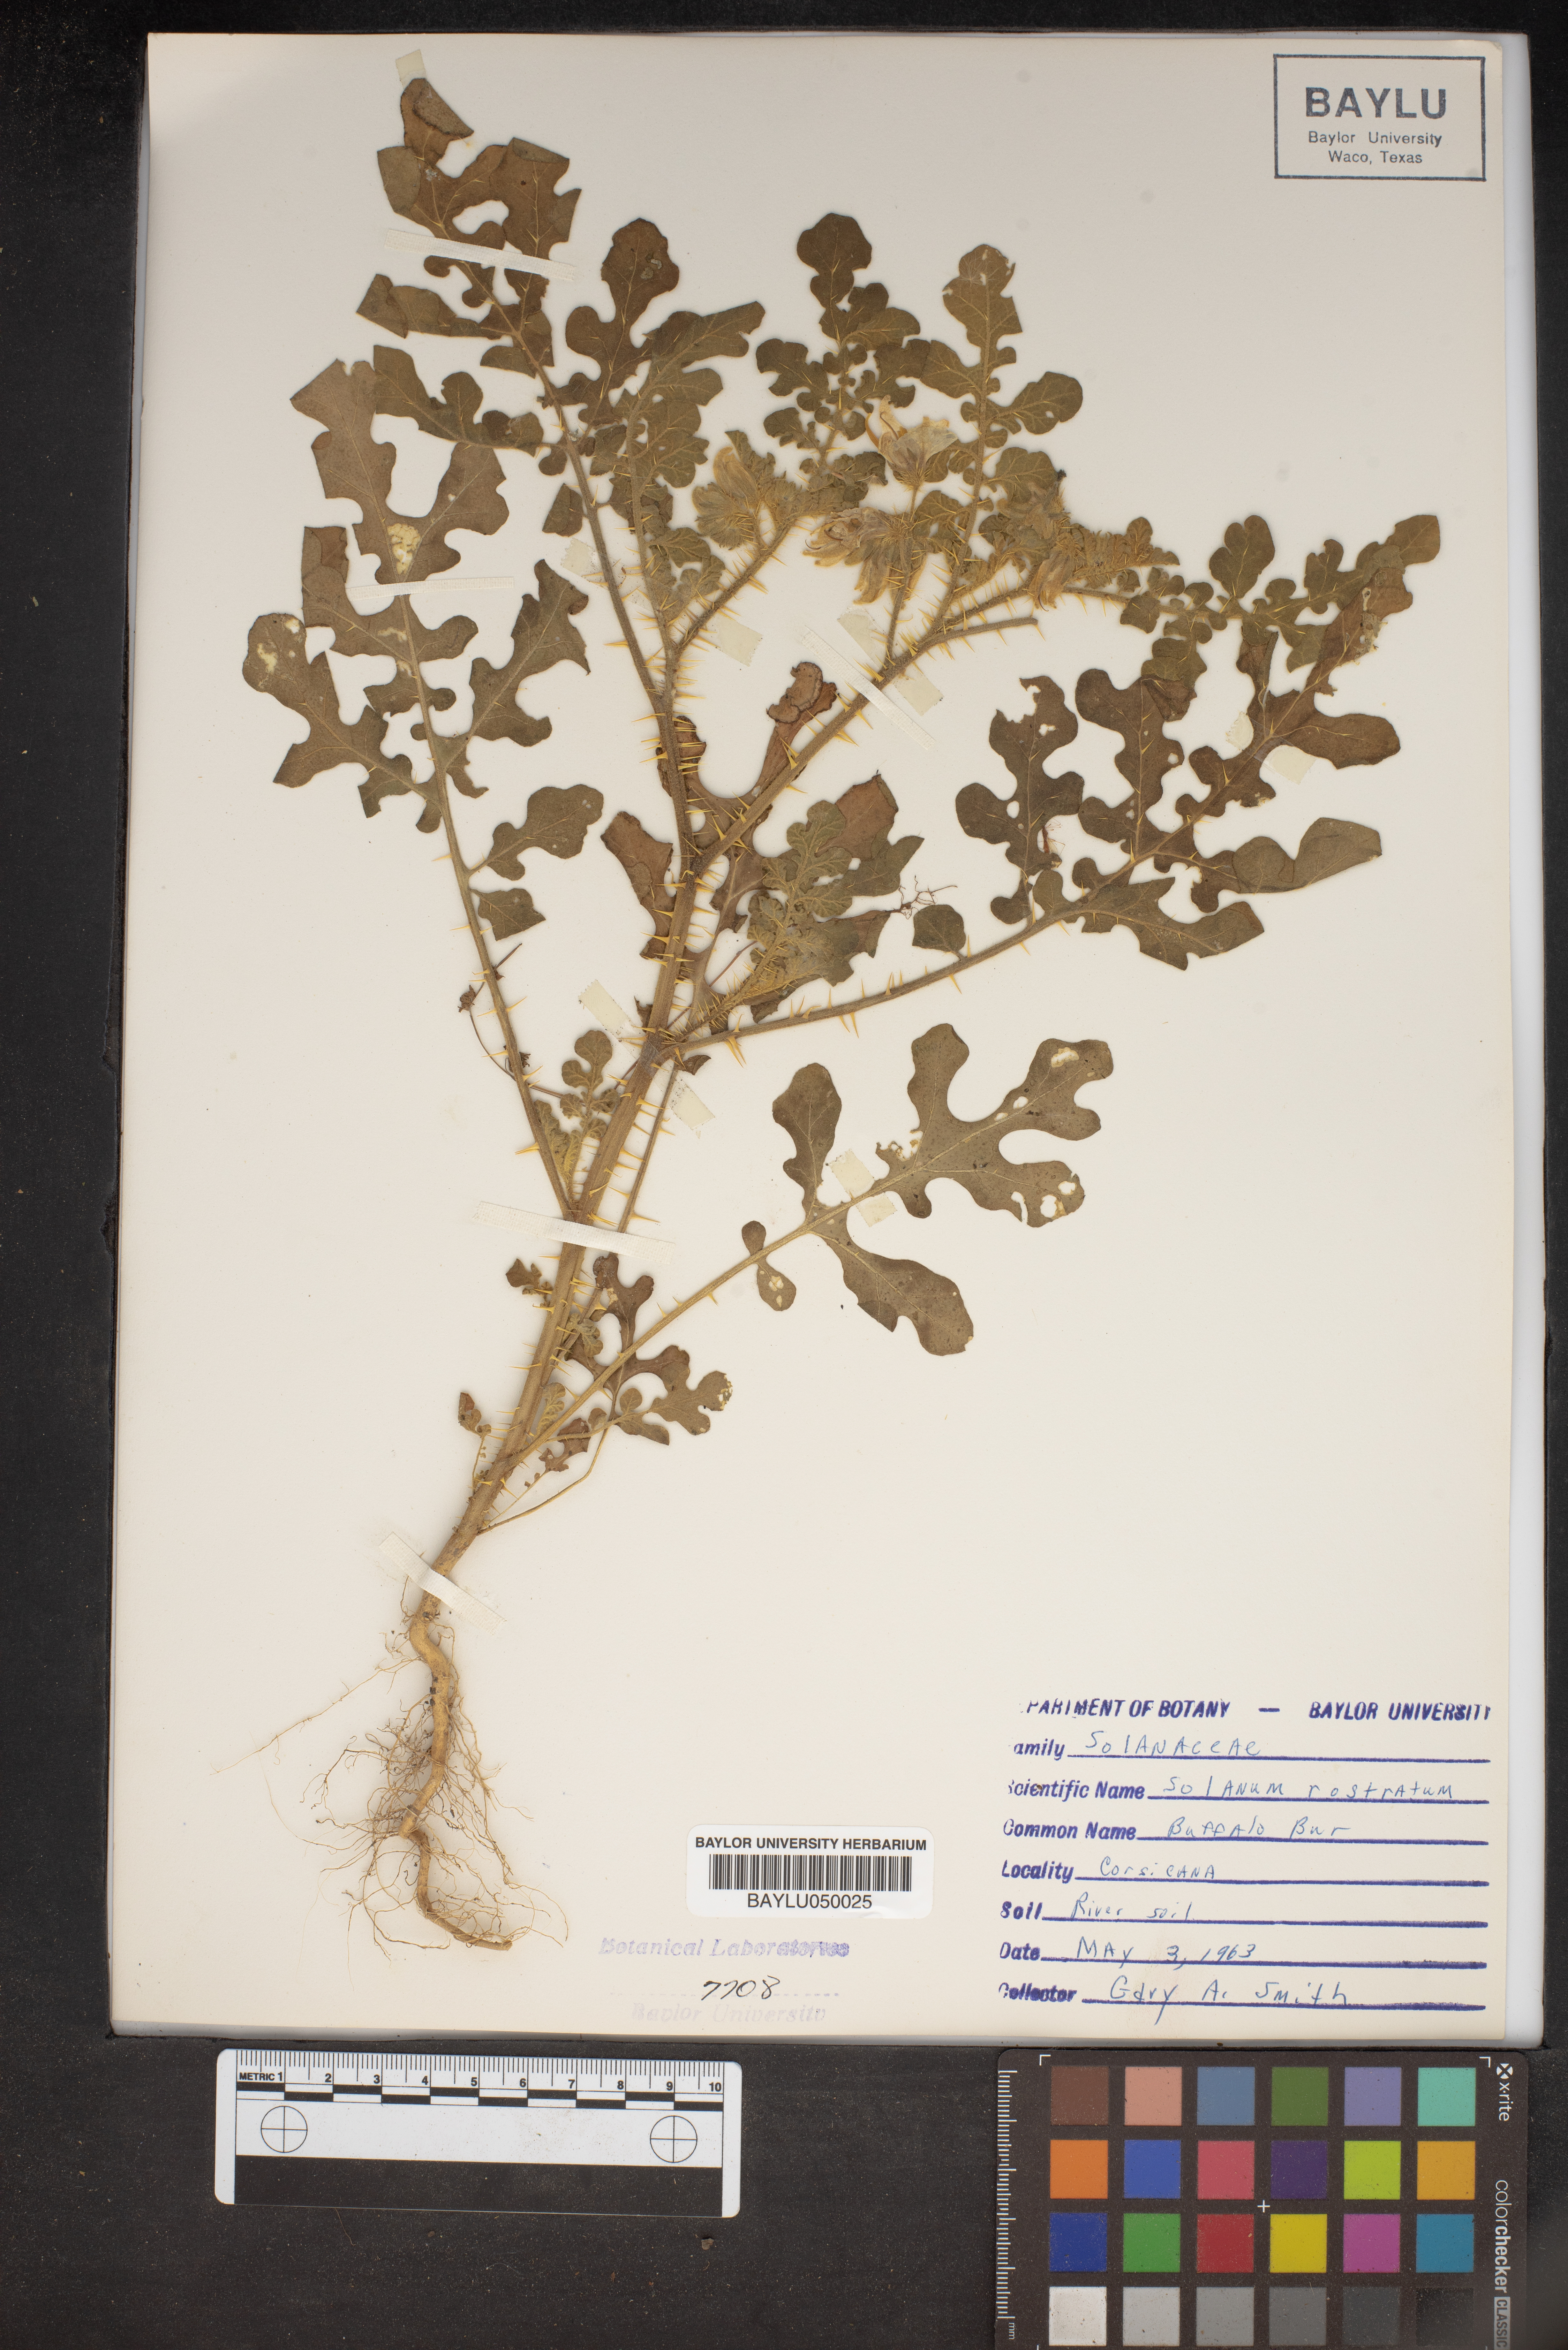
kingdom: Plantae
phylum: Tracheophyta
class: Magnoliopsida
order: Solanales
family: Solanaceae
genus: Solanum
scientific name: Solanum angustifolium
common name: Buffalobur nightshade
